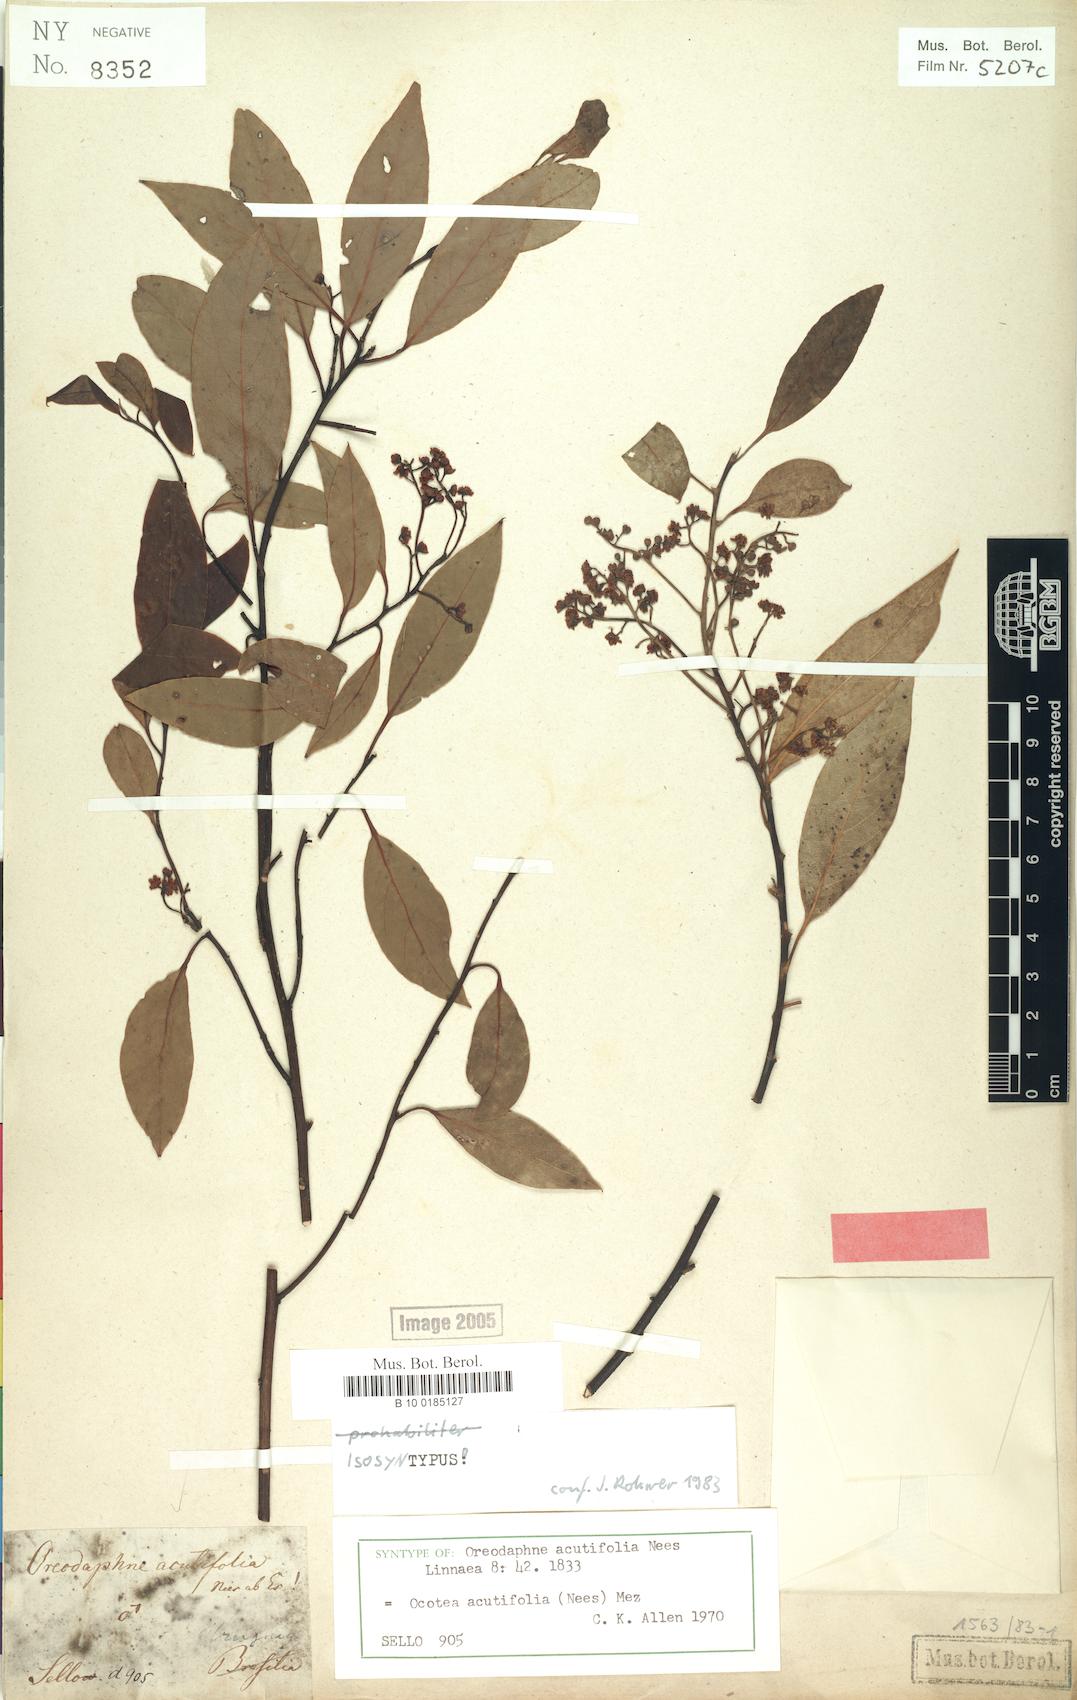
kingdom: Plantae
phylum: Tracheophyta
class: Magnoliopsida
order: Laurales
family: Lauraceae
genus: Ocotea
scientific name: Ocotea acutifolia
